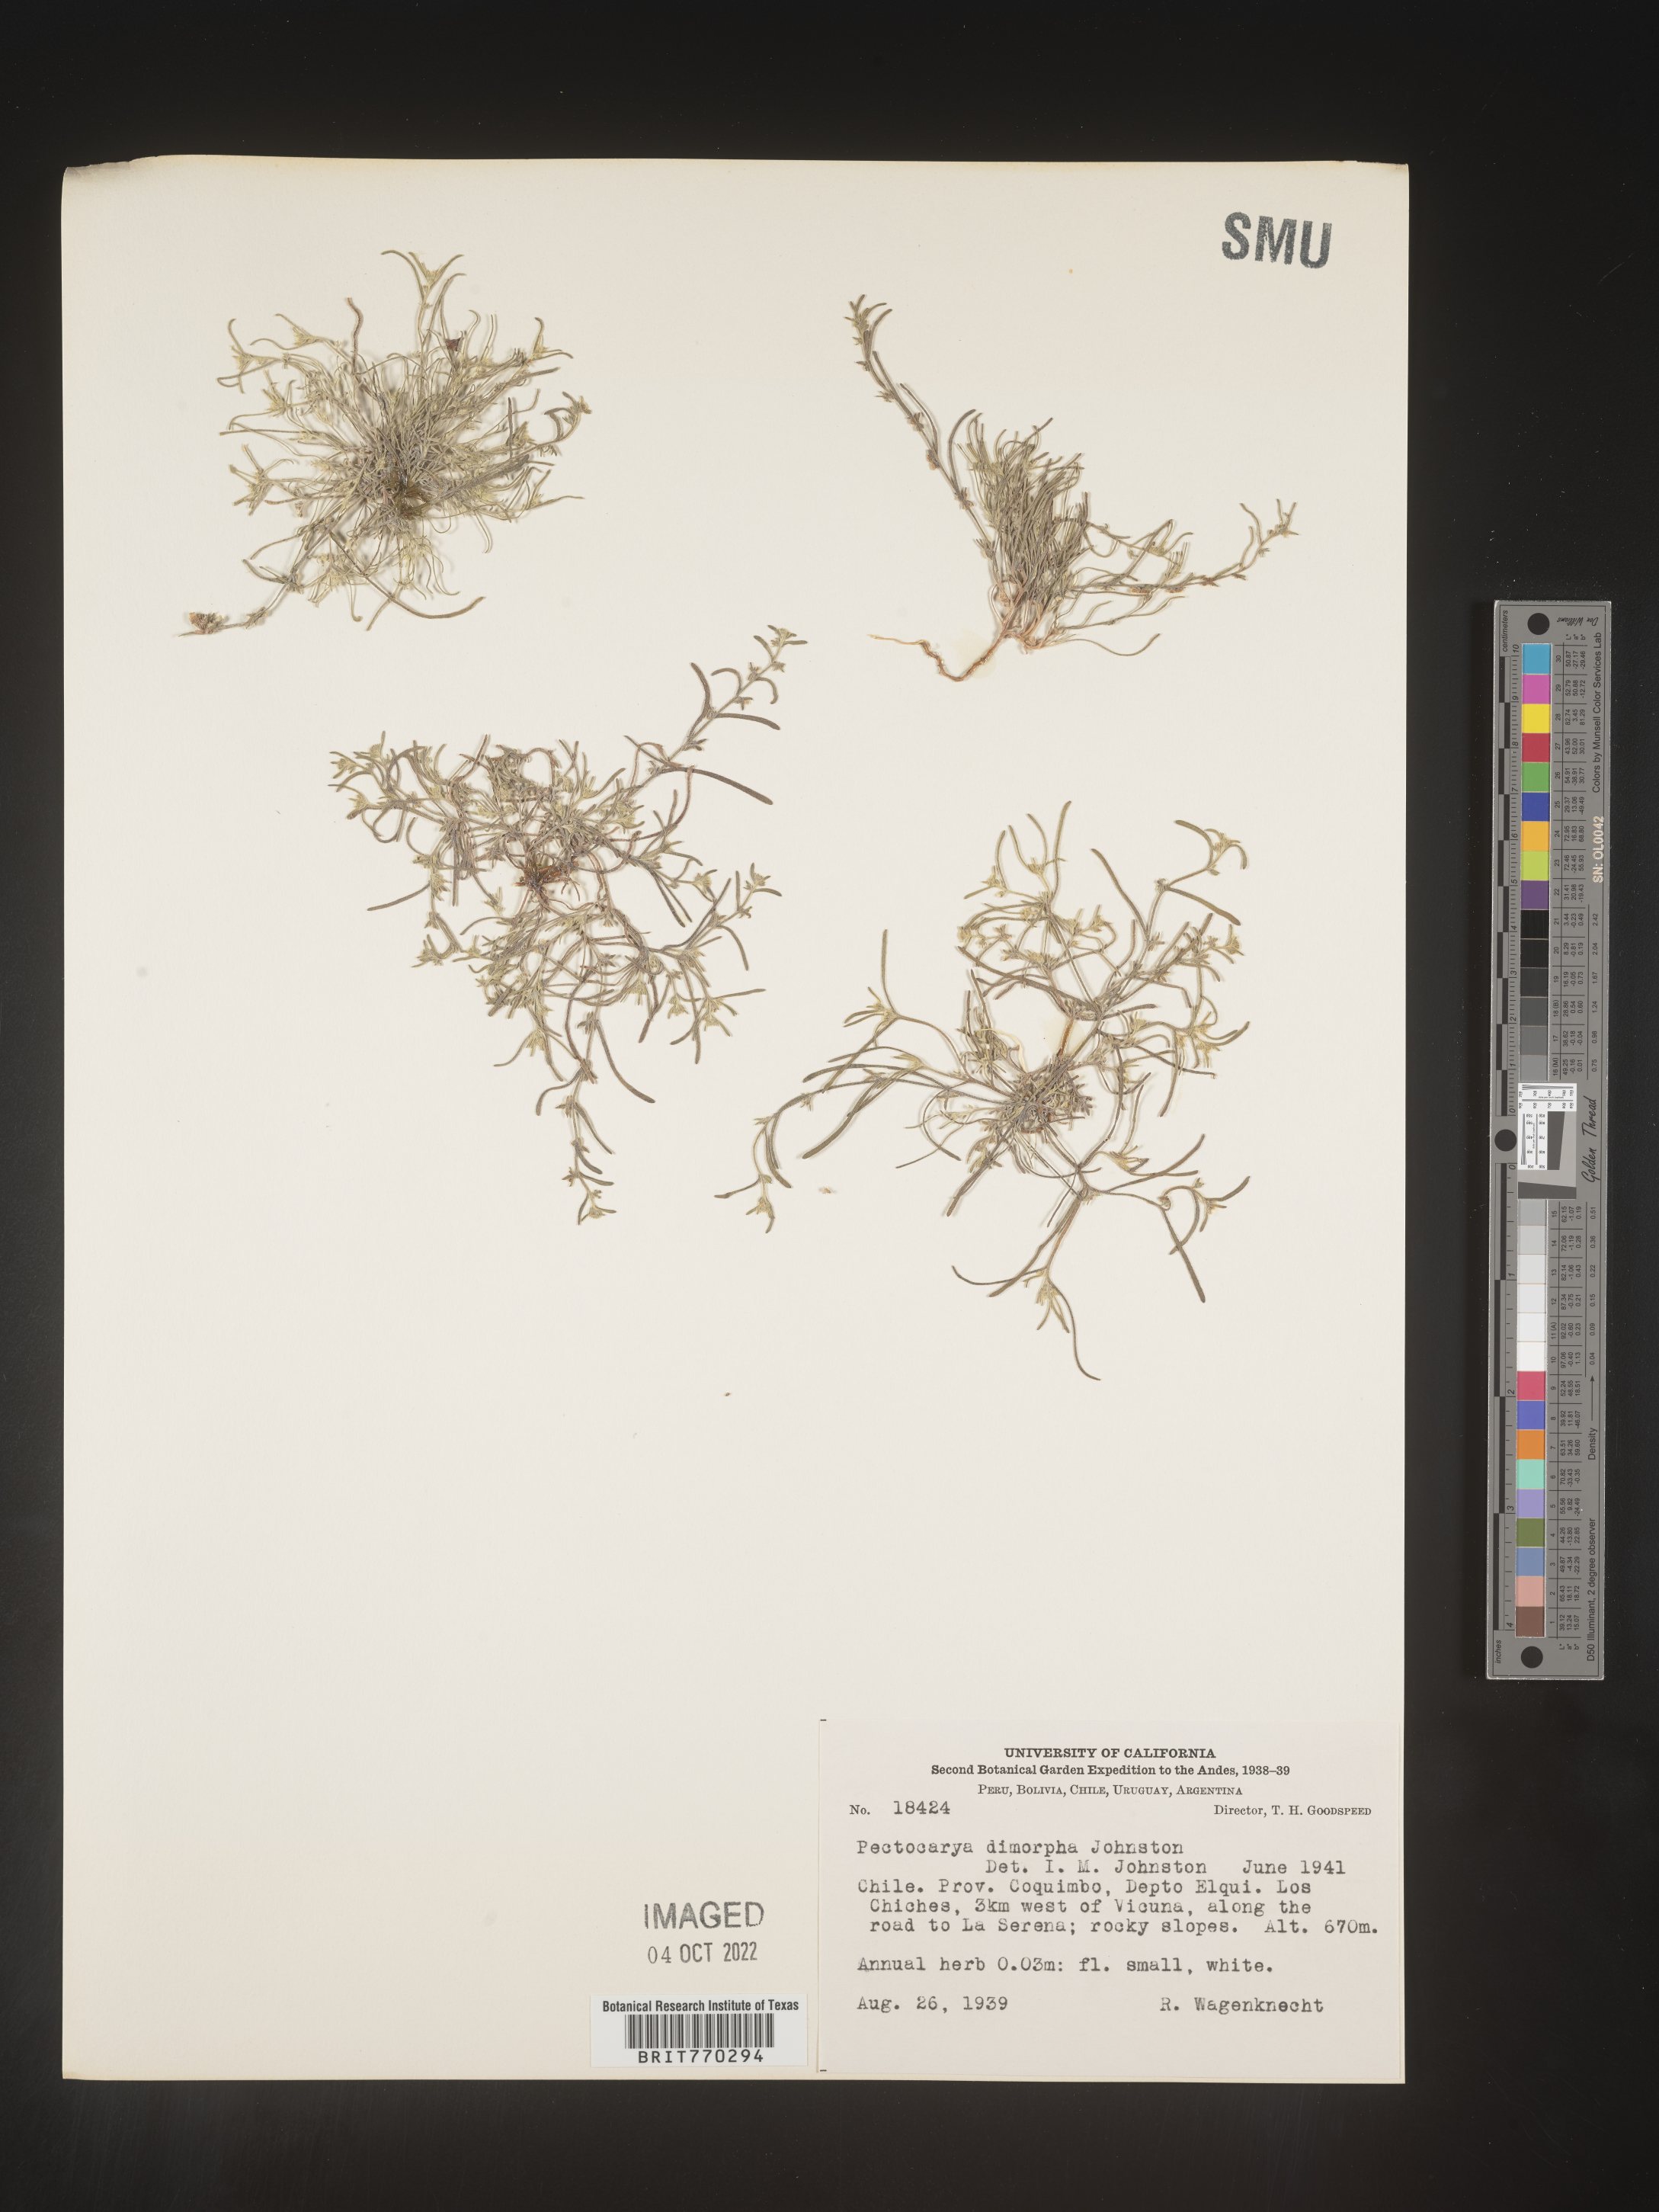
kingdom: Plantae
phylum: Tracheophyta
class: Magnoliopsida
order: Boraginales
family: Boraginaceae
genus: Pectocarya
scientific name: Pectocarya
